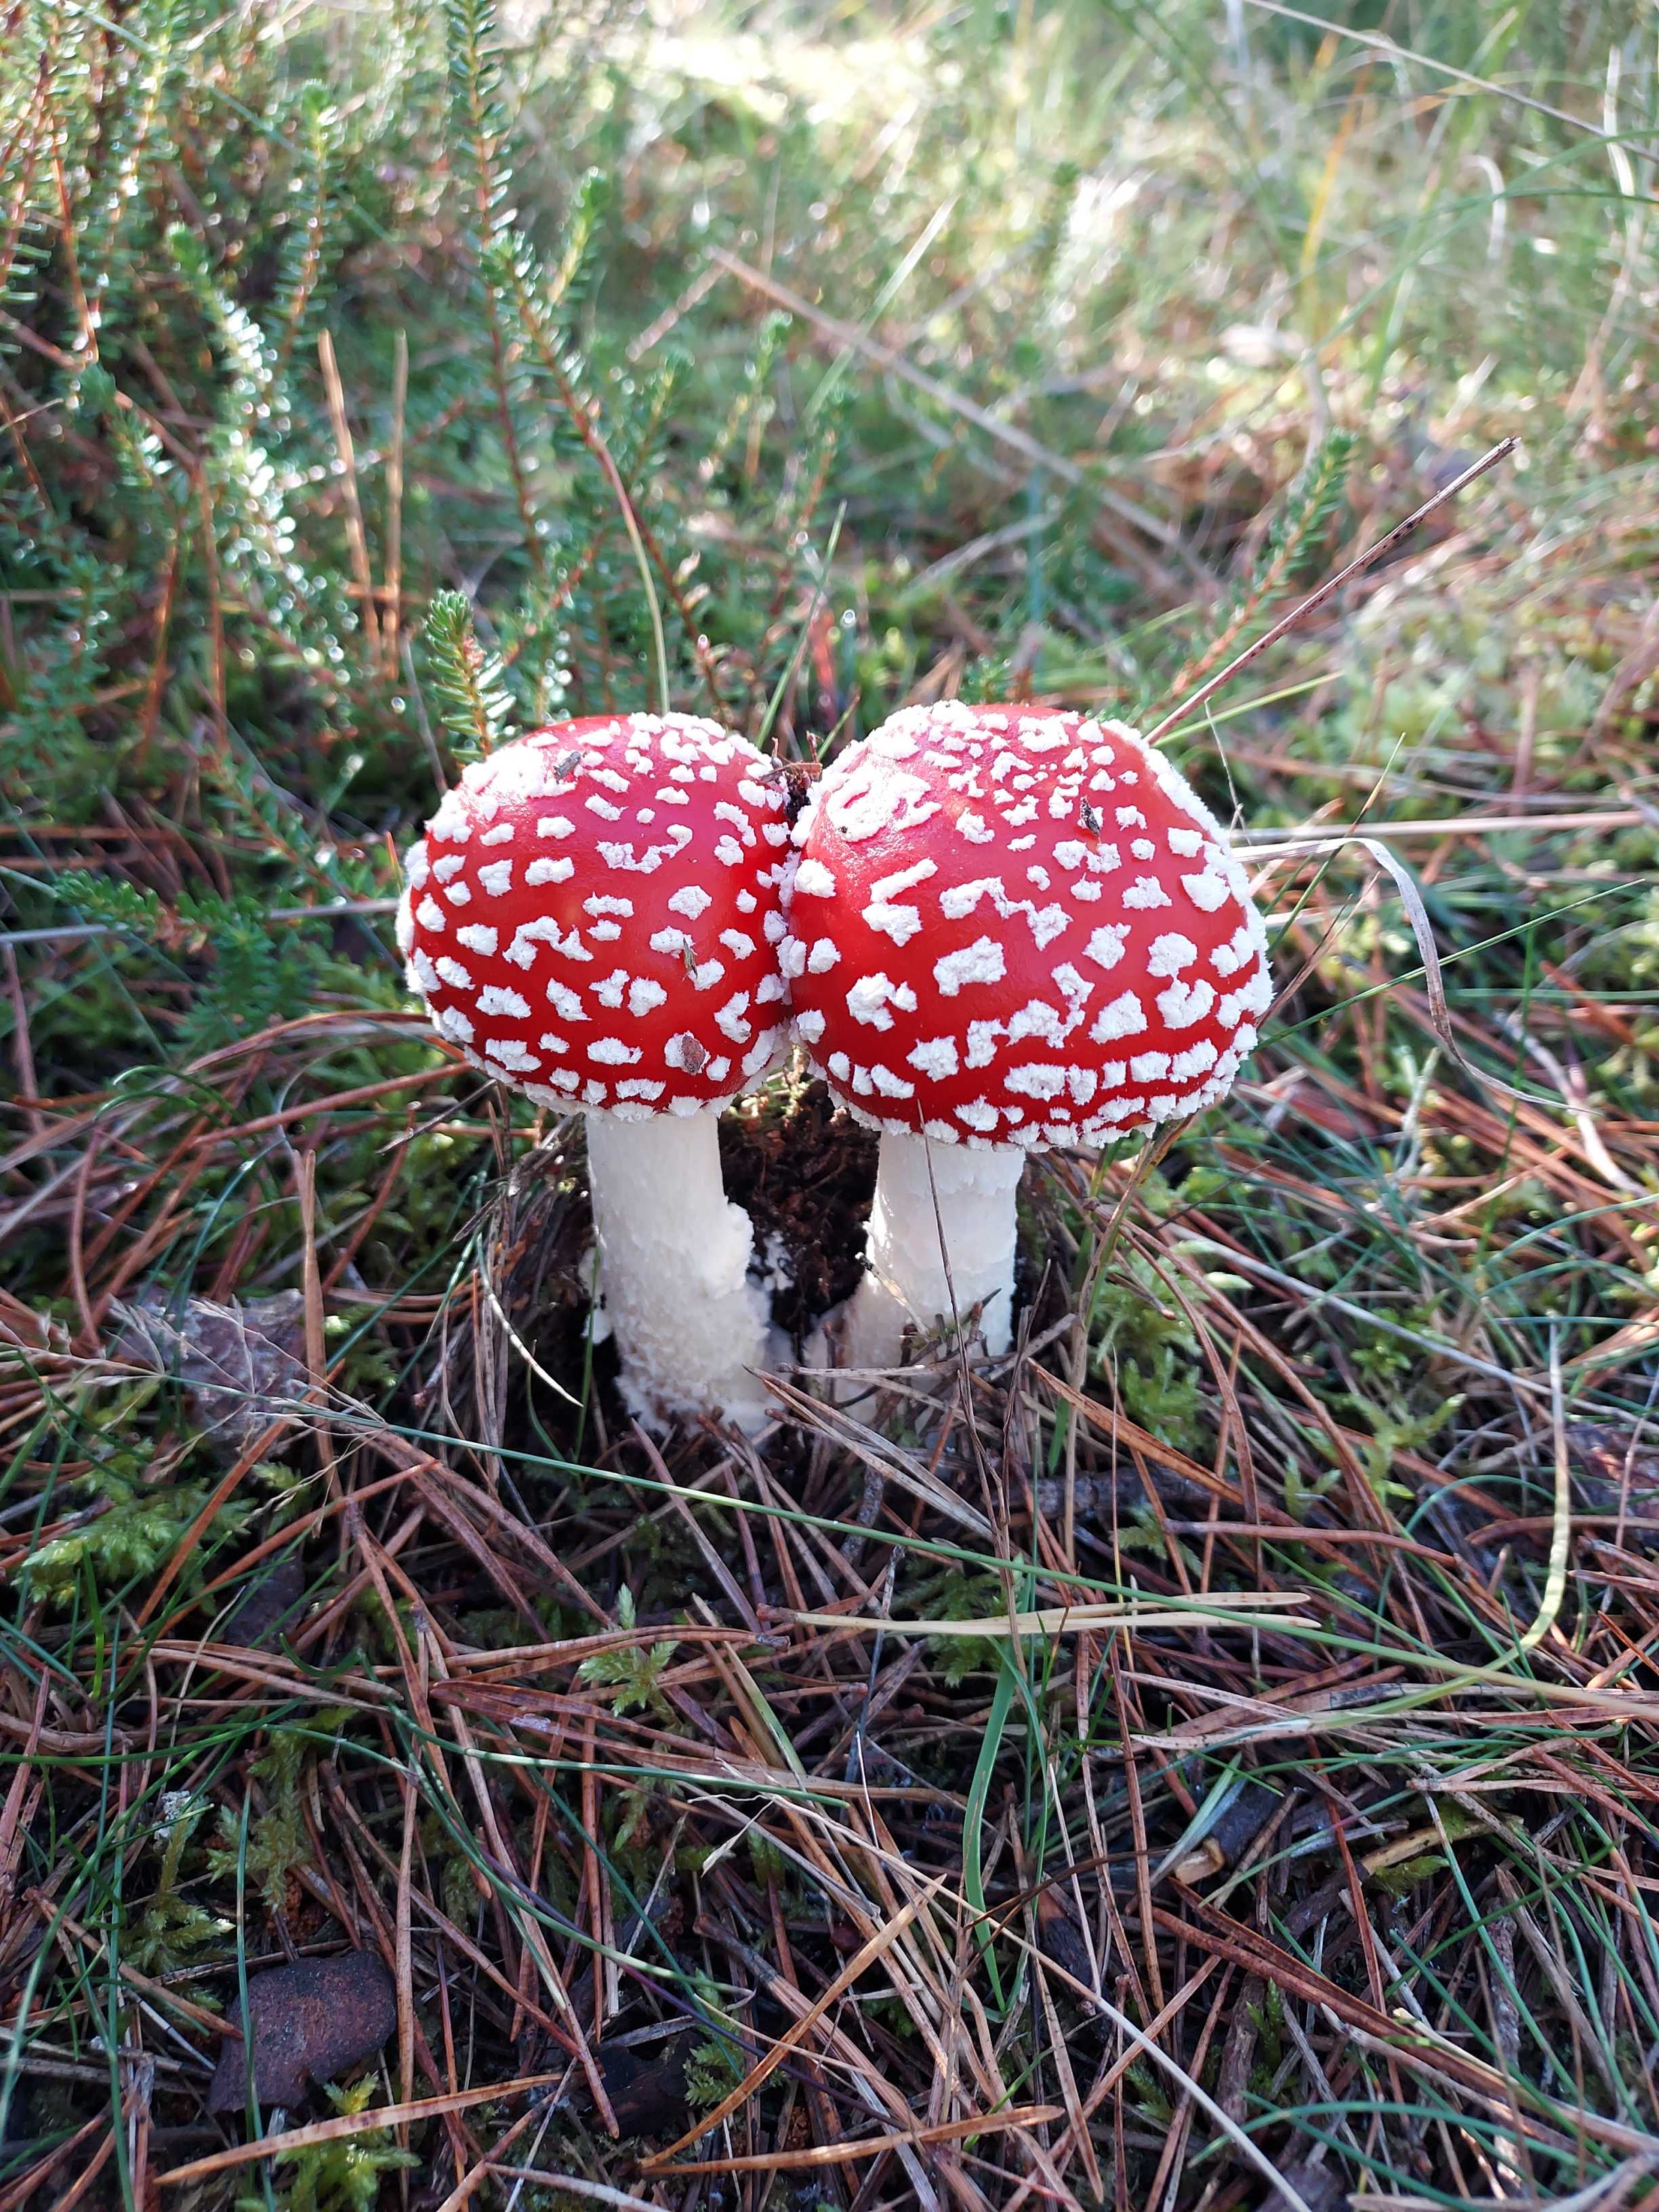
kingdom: Fungi
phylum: Basidiomycota
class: Agaricomycetes
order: Agaricales
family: Amanitaceae
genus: Amanita
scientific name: Amanita muscaria
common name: rød fluesvamp
